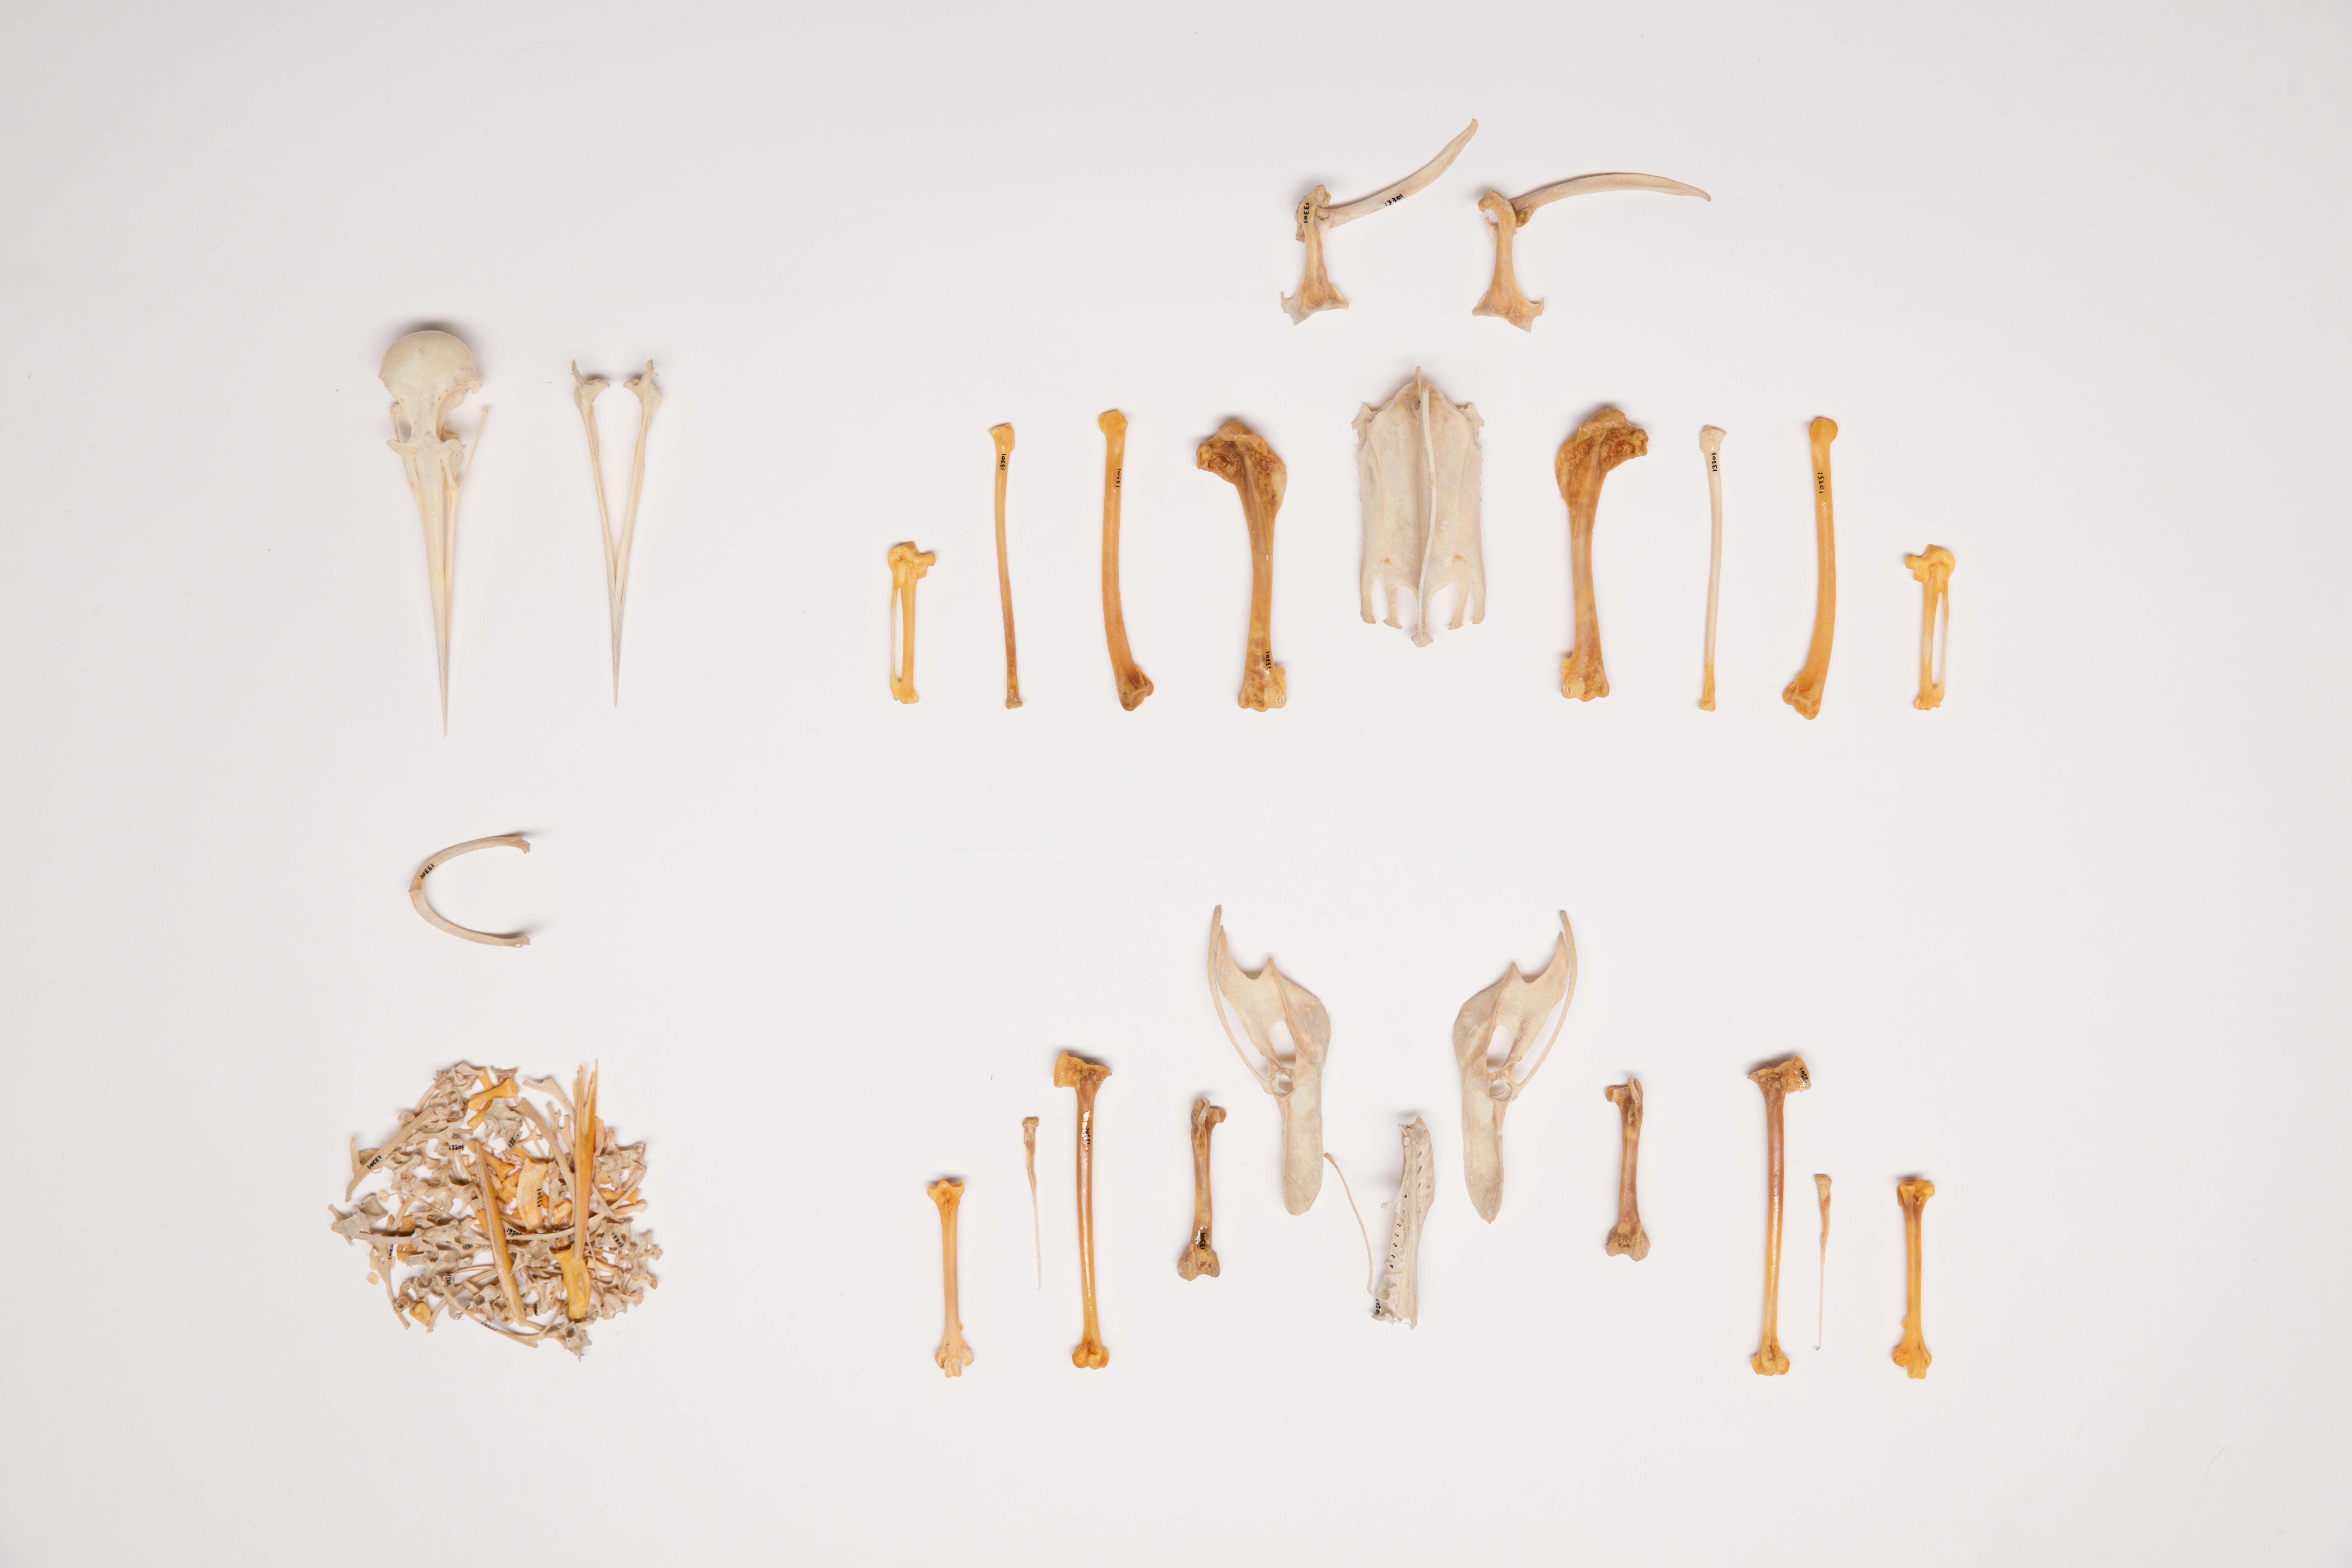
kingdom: Animalia
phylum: Chordata
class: Aves
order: Charadriiformes
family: Haematopodidae
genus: Haematopus
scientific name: Haematopus chathamensis
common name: Chatham oystercatcher
